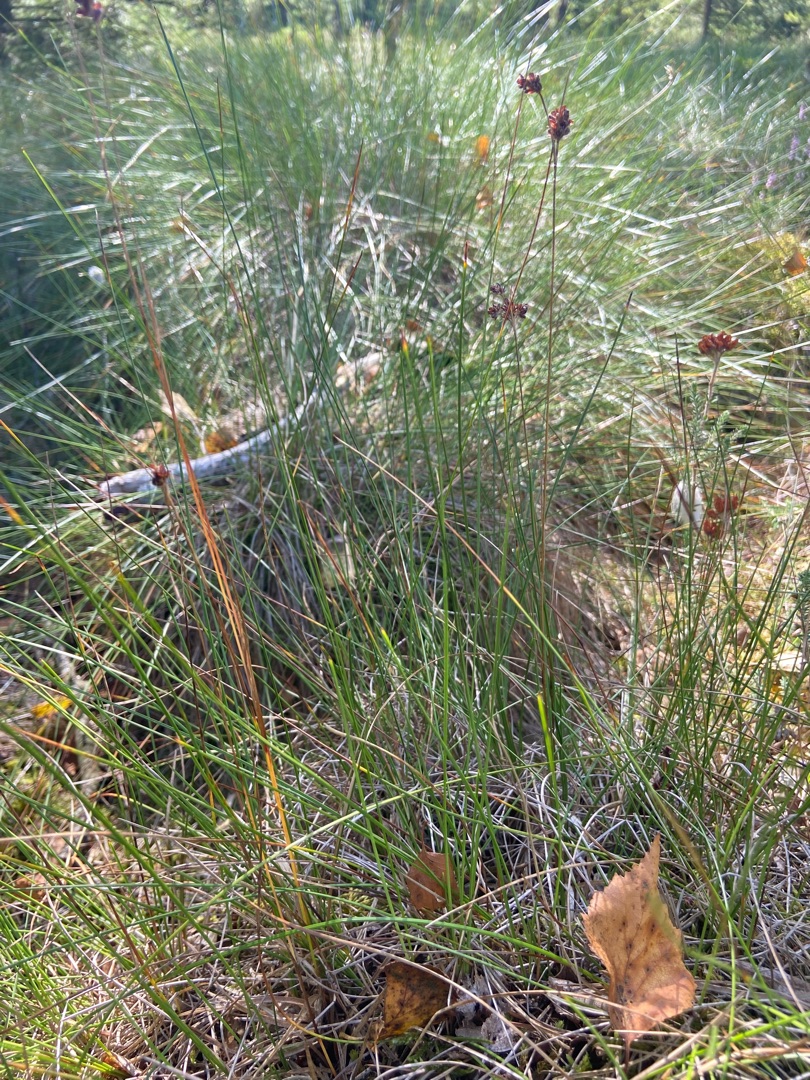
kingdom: Plantae
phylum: Tracheophyta
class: Liliopsida
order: Poales
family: Juncaceae
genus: Luzula
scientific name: Luzula campestris
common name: Mark-frytle
